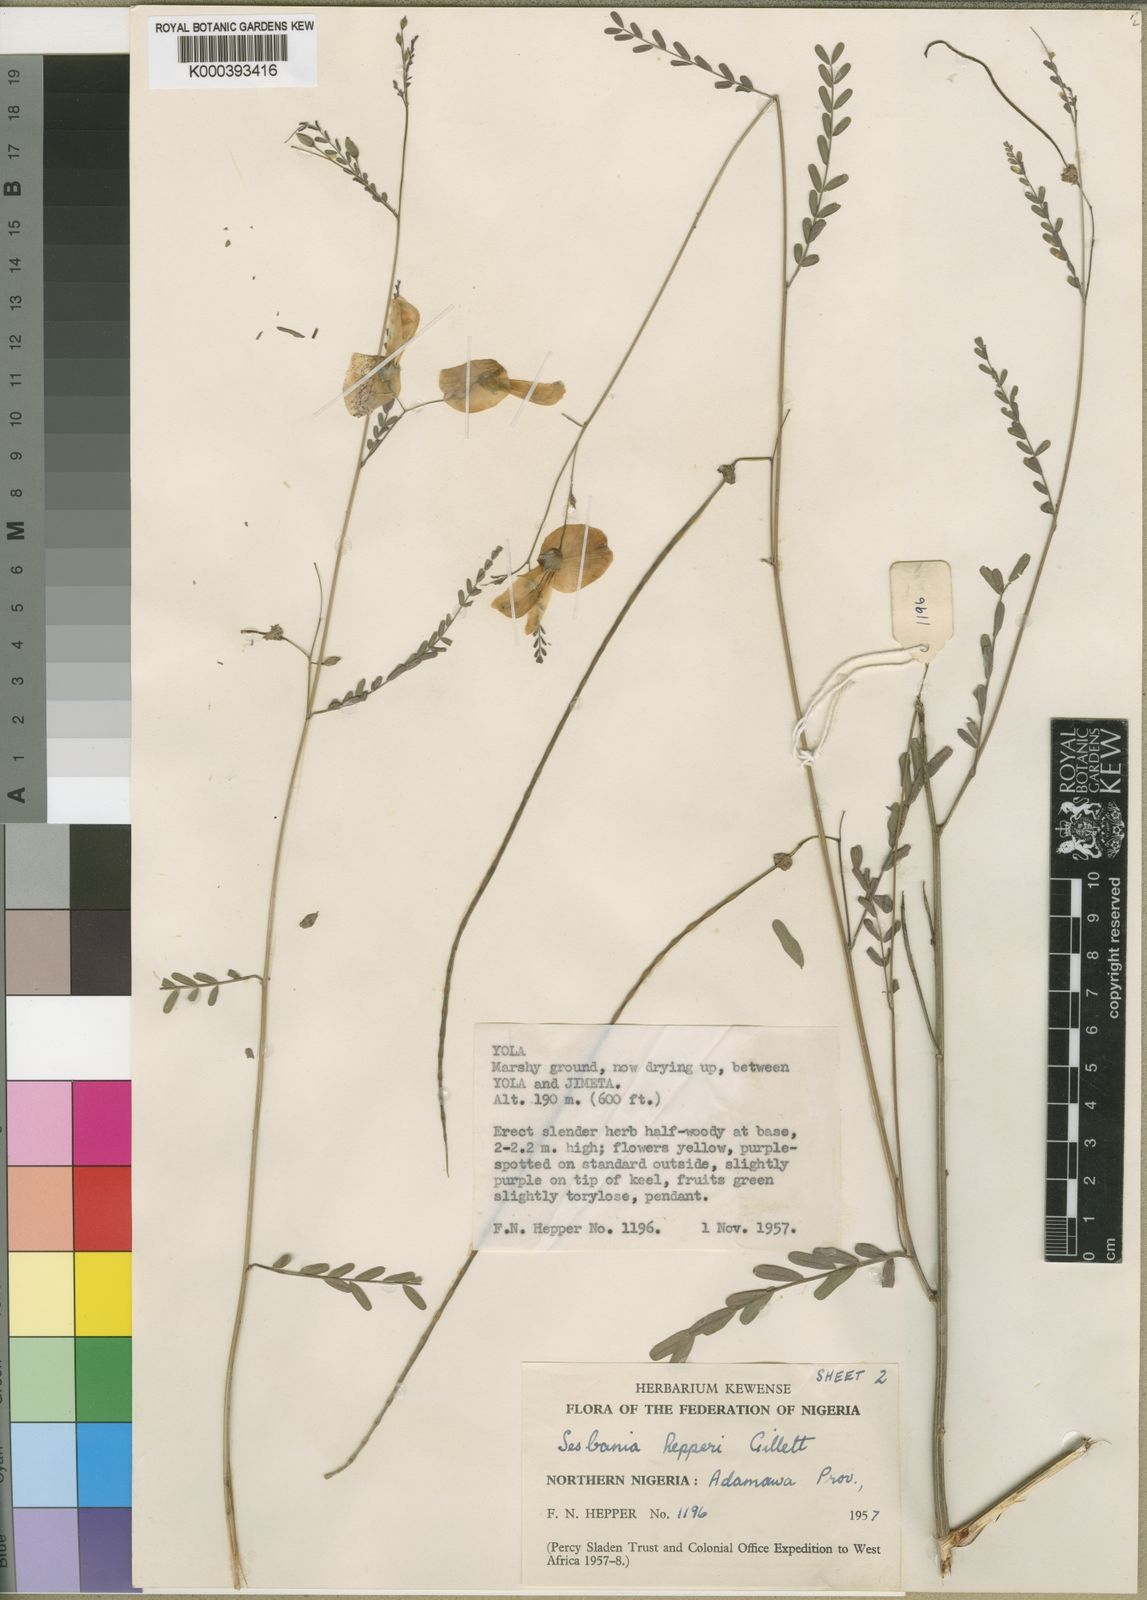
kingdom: Plantae
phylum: Tracheophyta
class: Magnoliopsida
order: Fabales
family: Fabaceae
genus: Sesbania
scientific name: Sesbania hepperi
